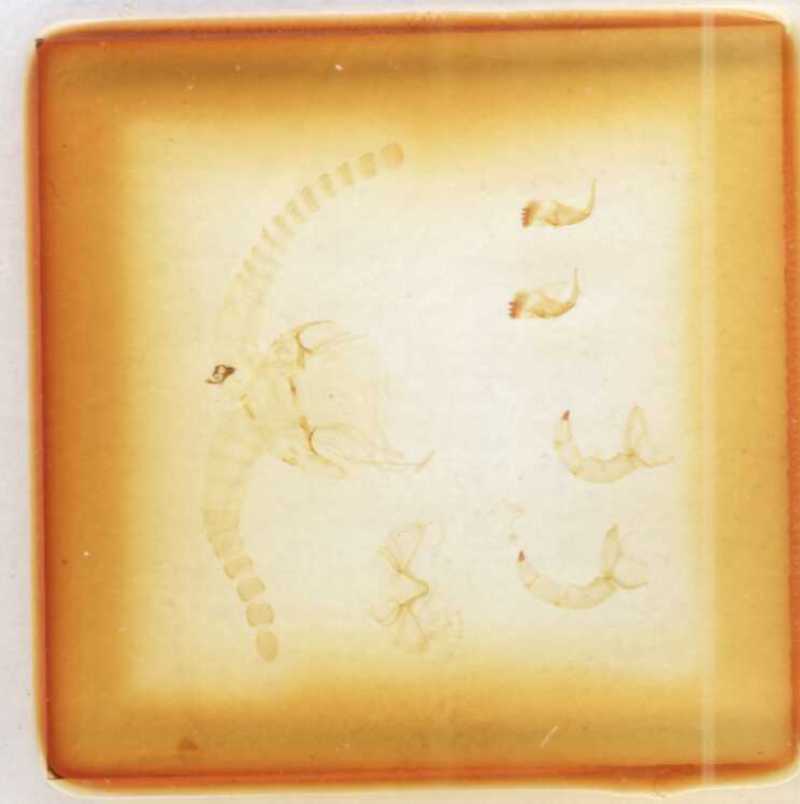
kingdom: Animalia
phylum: Arthropoda
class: Chilopoda
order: Scolopendromorpha
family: Scolopendridae
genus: Malaccolabis
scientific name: Malaccolabis metallica
